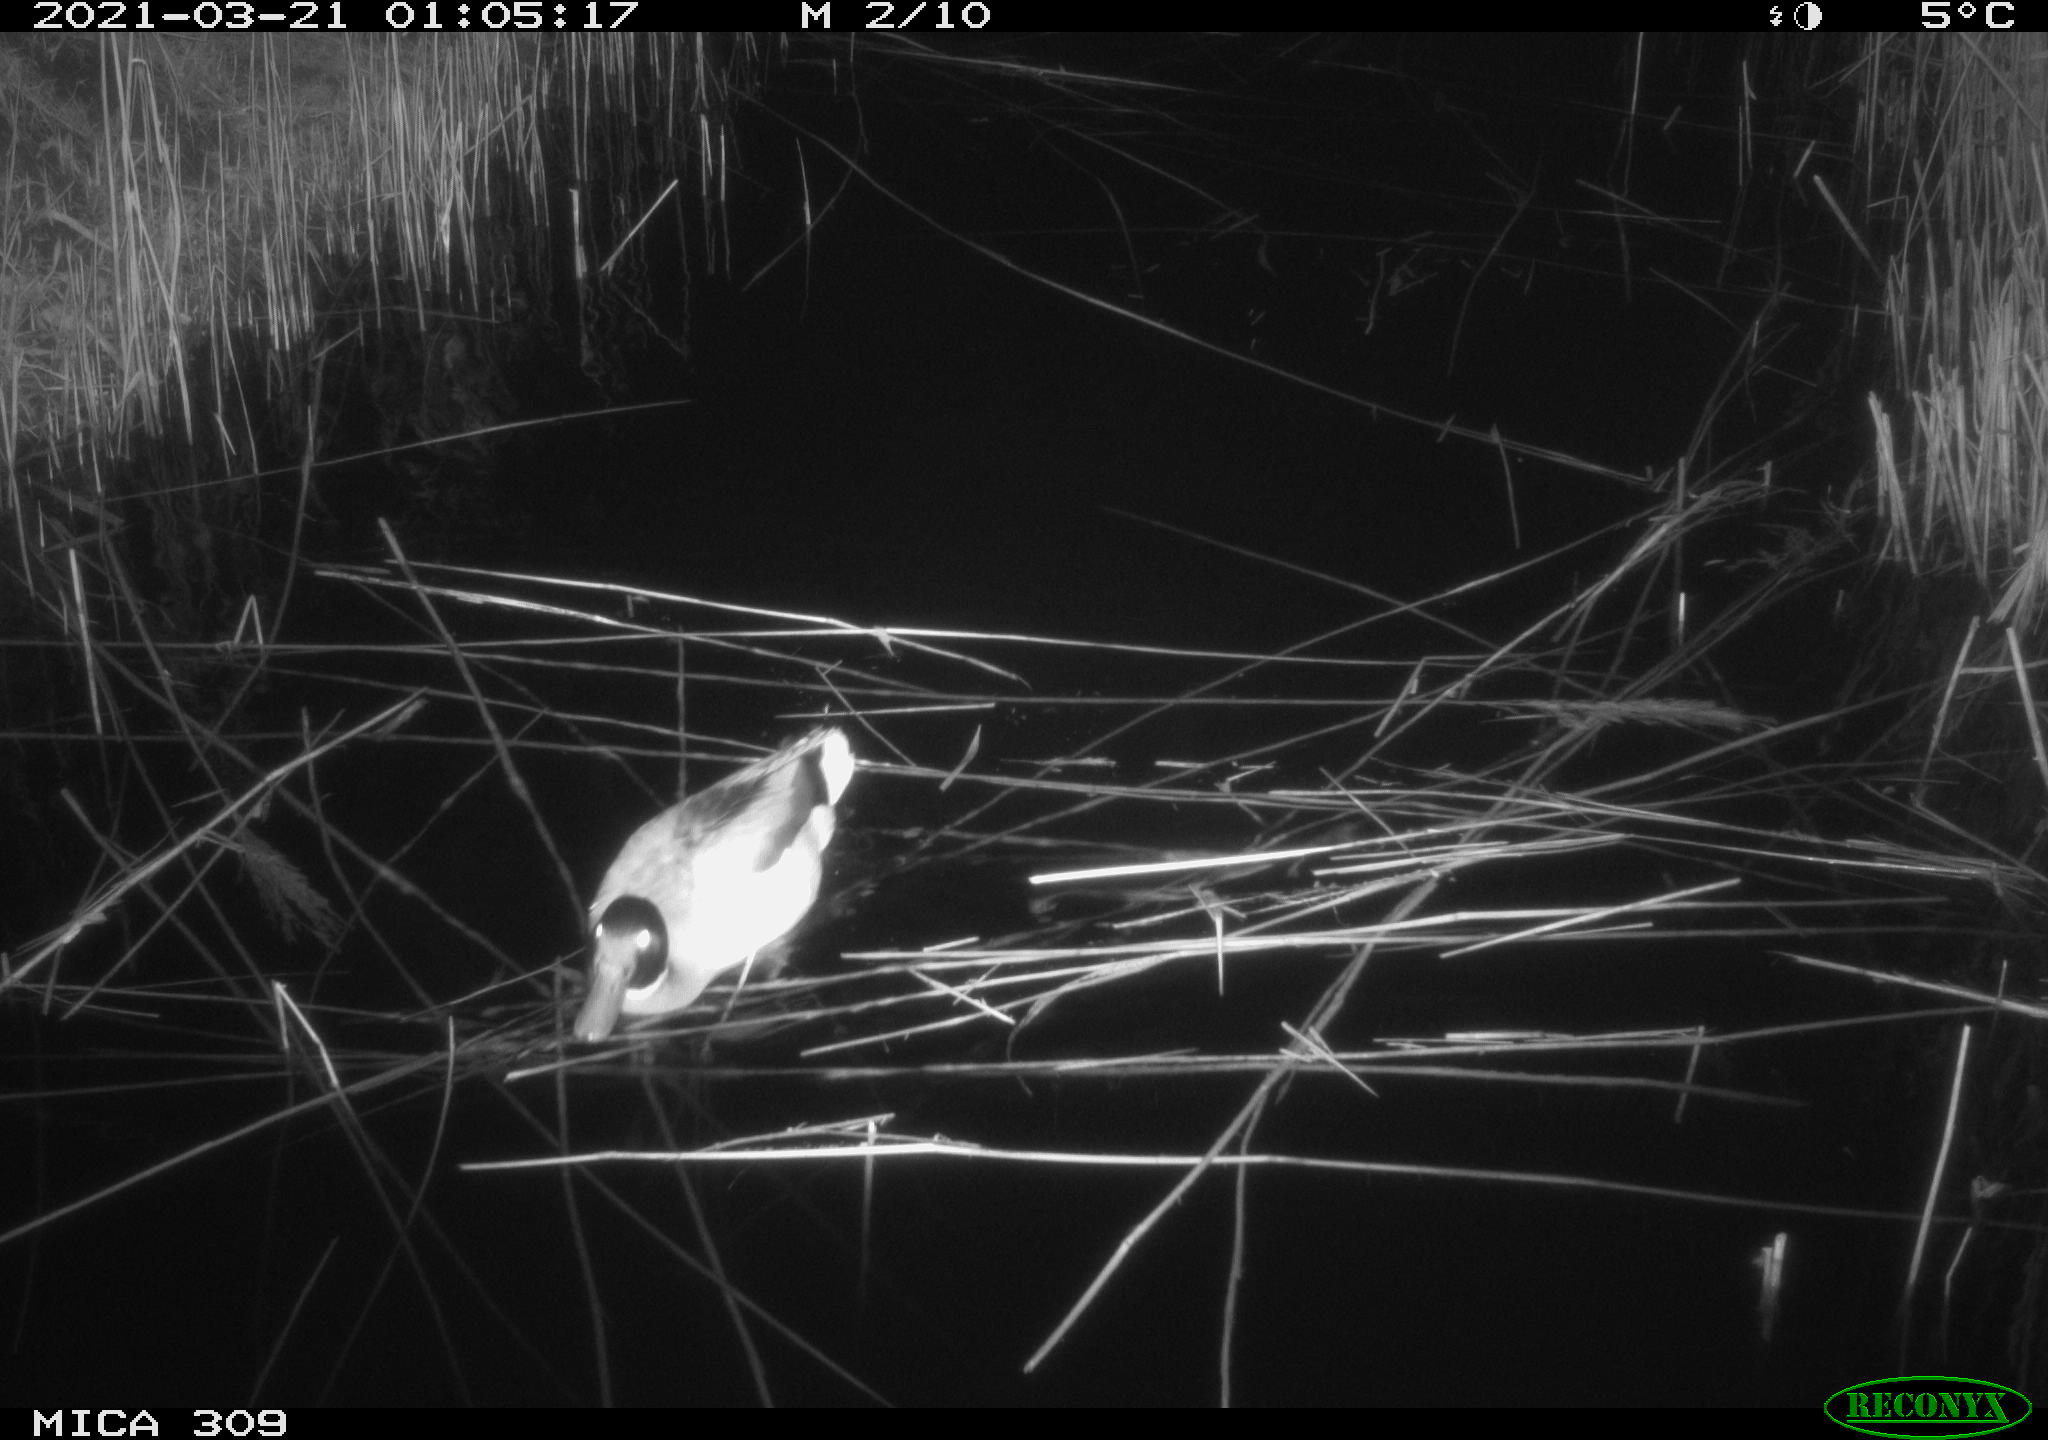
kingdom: Animalia
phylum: Chordata
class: Aves
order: Anseriformes
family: Anatidae
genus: Anas
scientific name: Anas platyrhynchos
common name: Mallard
